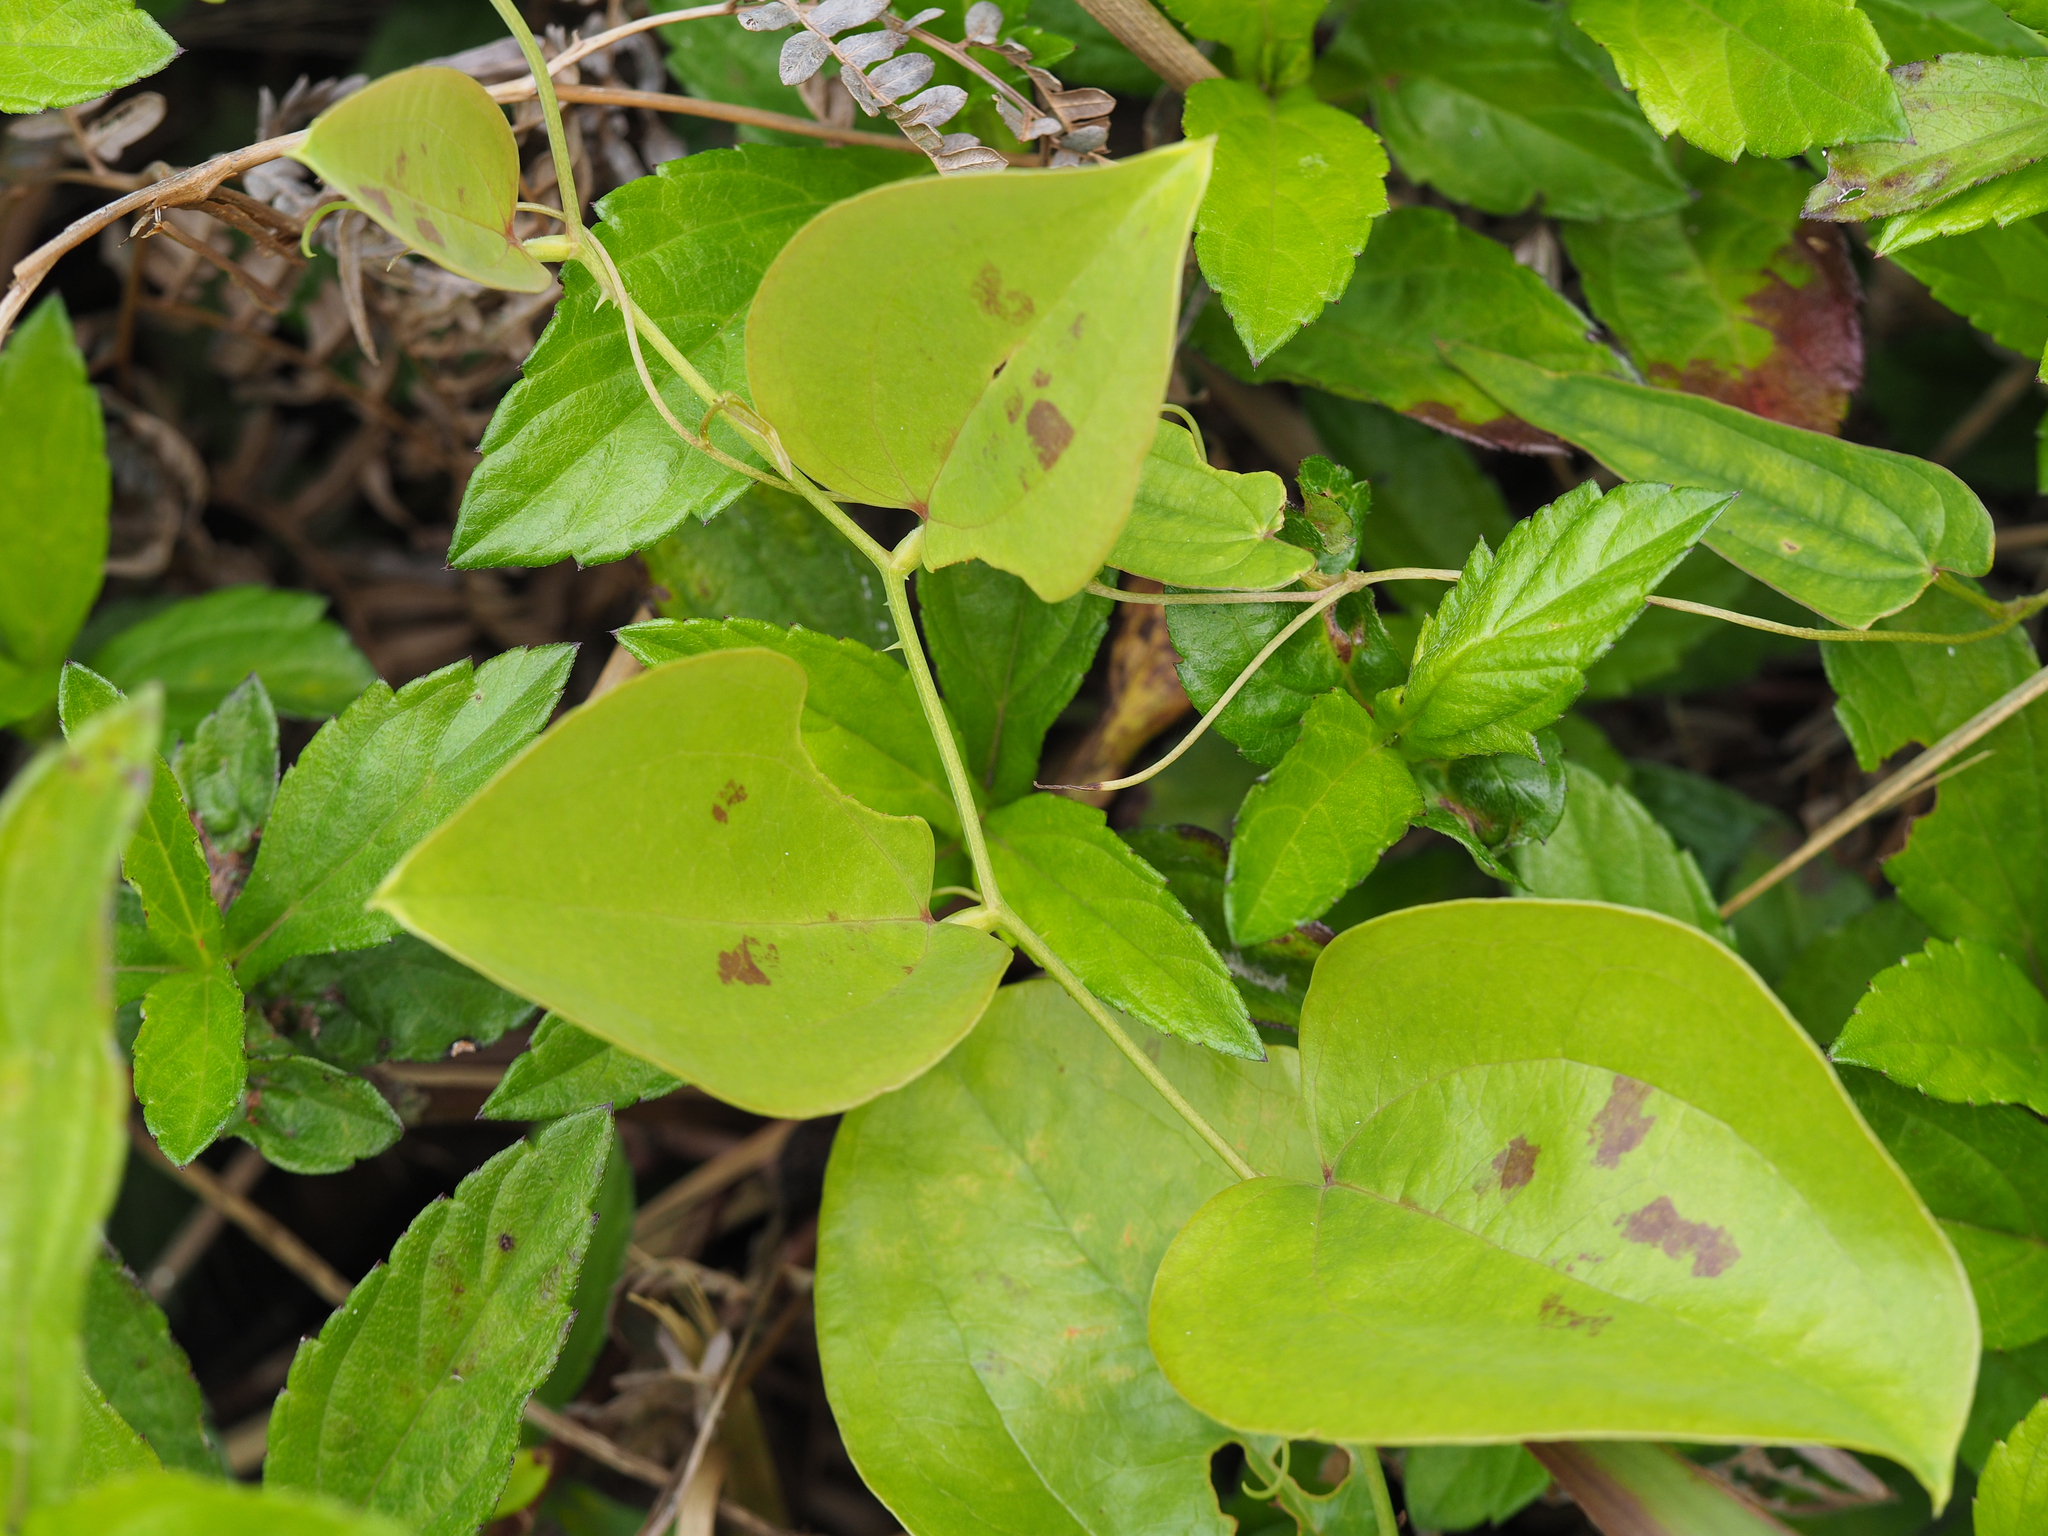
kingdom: Plantae
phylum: Tracheophyta
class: Liliopsida
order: Liliales
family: Smilacaceae
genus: Smilax
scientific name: Smilax china
